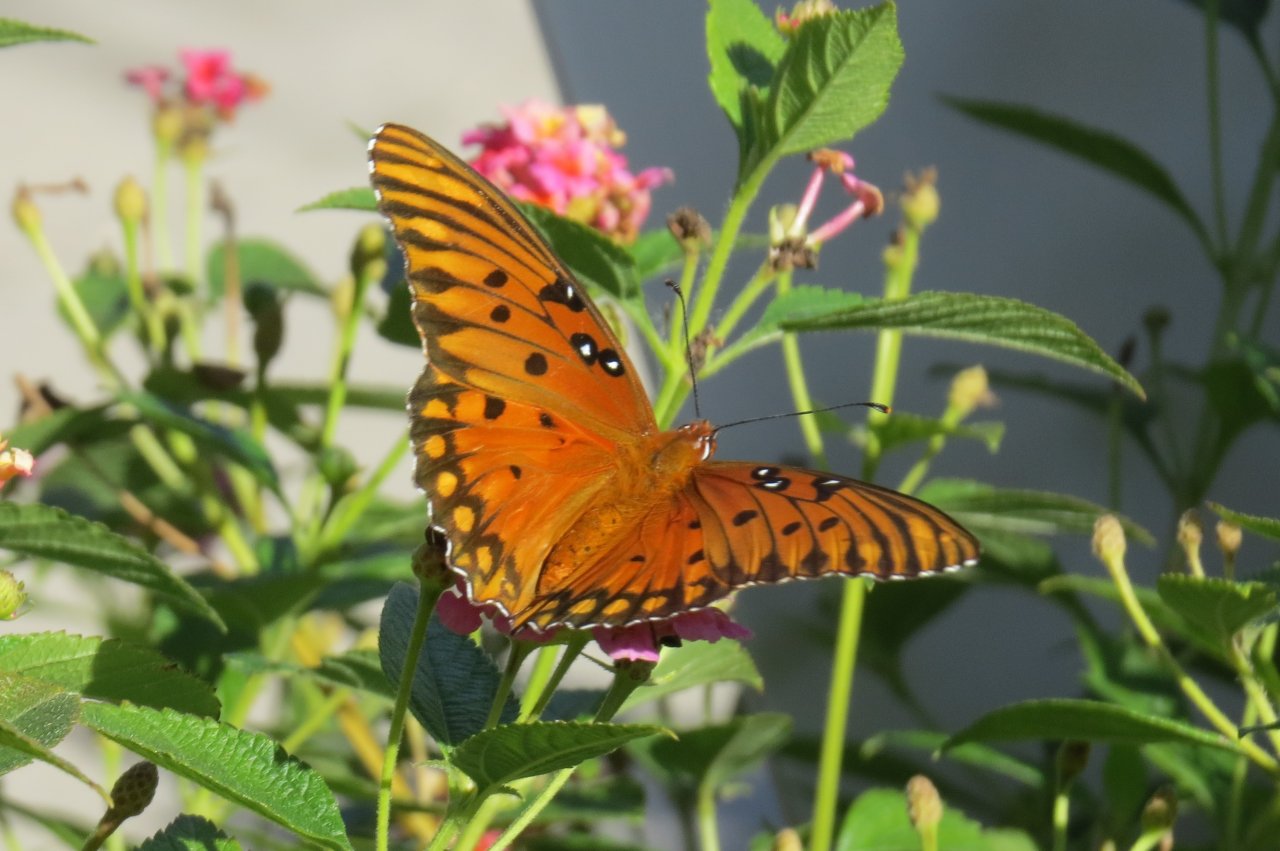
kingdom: Animalia
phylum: Arthropoda
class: Insecta
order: Lepidoptera
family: Nymphalidae
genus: Dione
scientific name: Dione vanillae
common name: Gulf Fritillary
